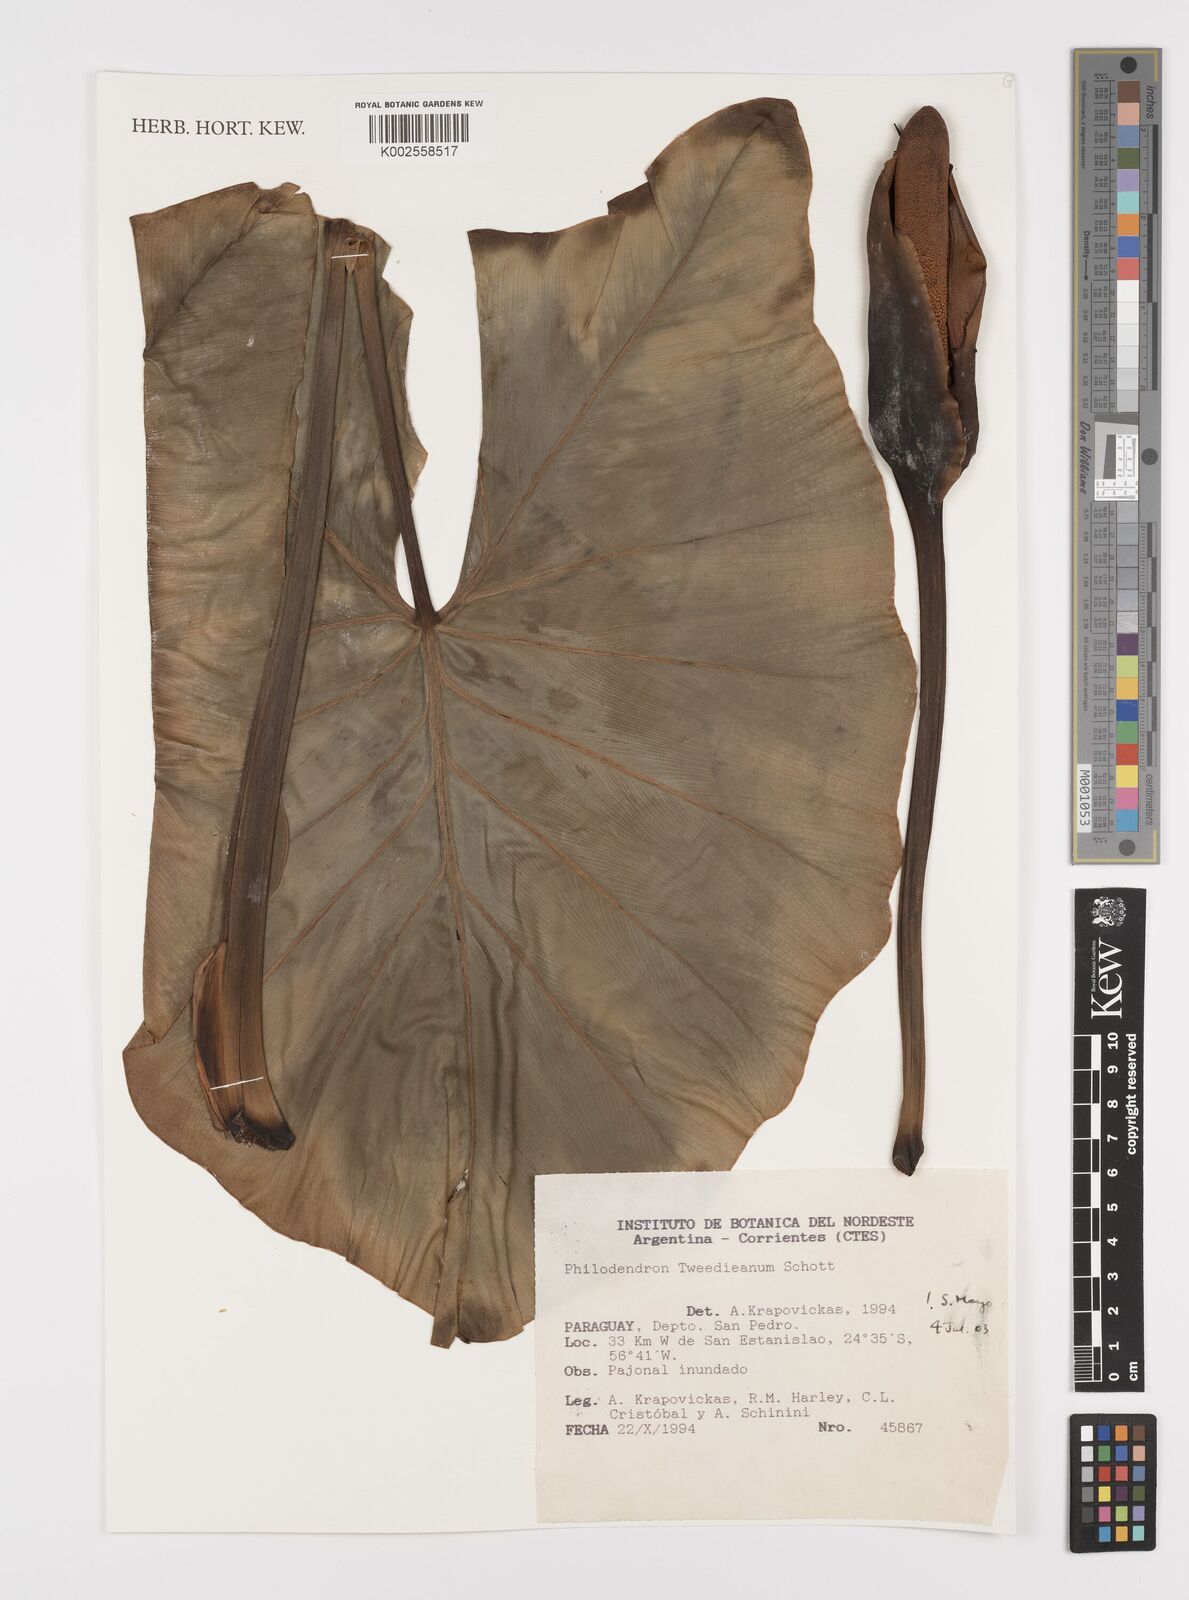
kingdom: Plantae
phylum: Tracheophyta
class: Liliopsida
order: Alismatales
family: Araceae
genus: Thaumatophyllum
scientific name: Thaumatophyllum tweedieanum
